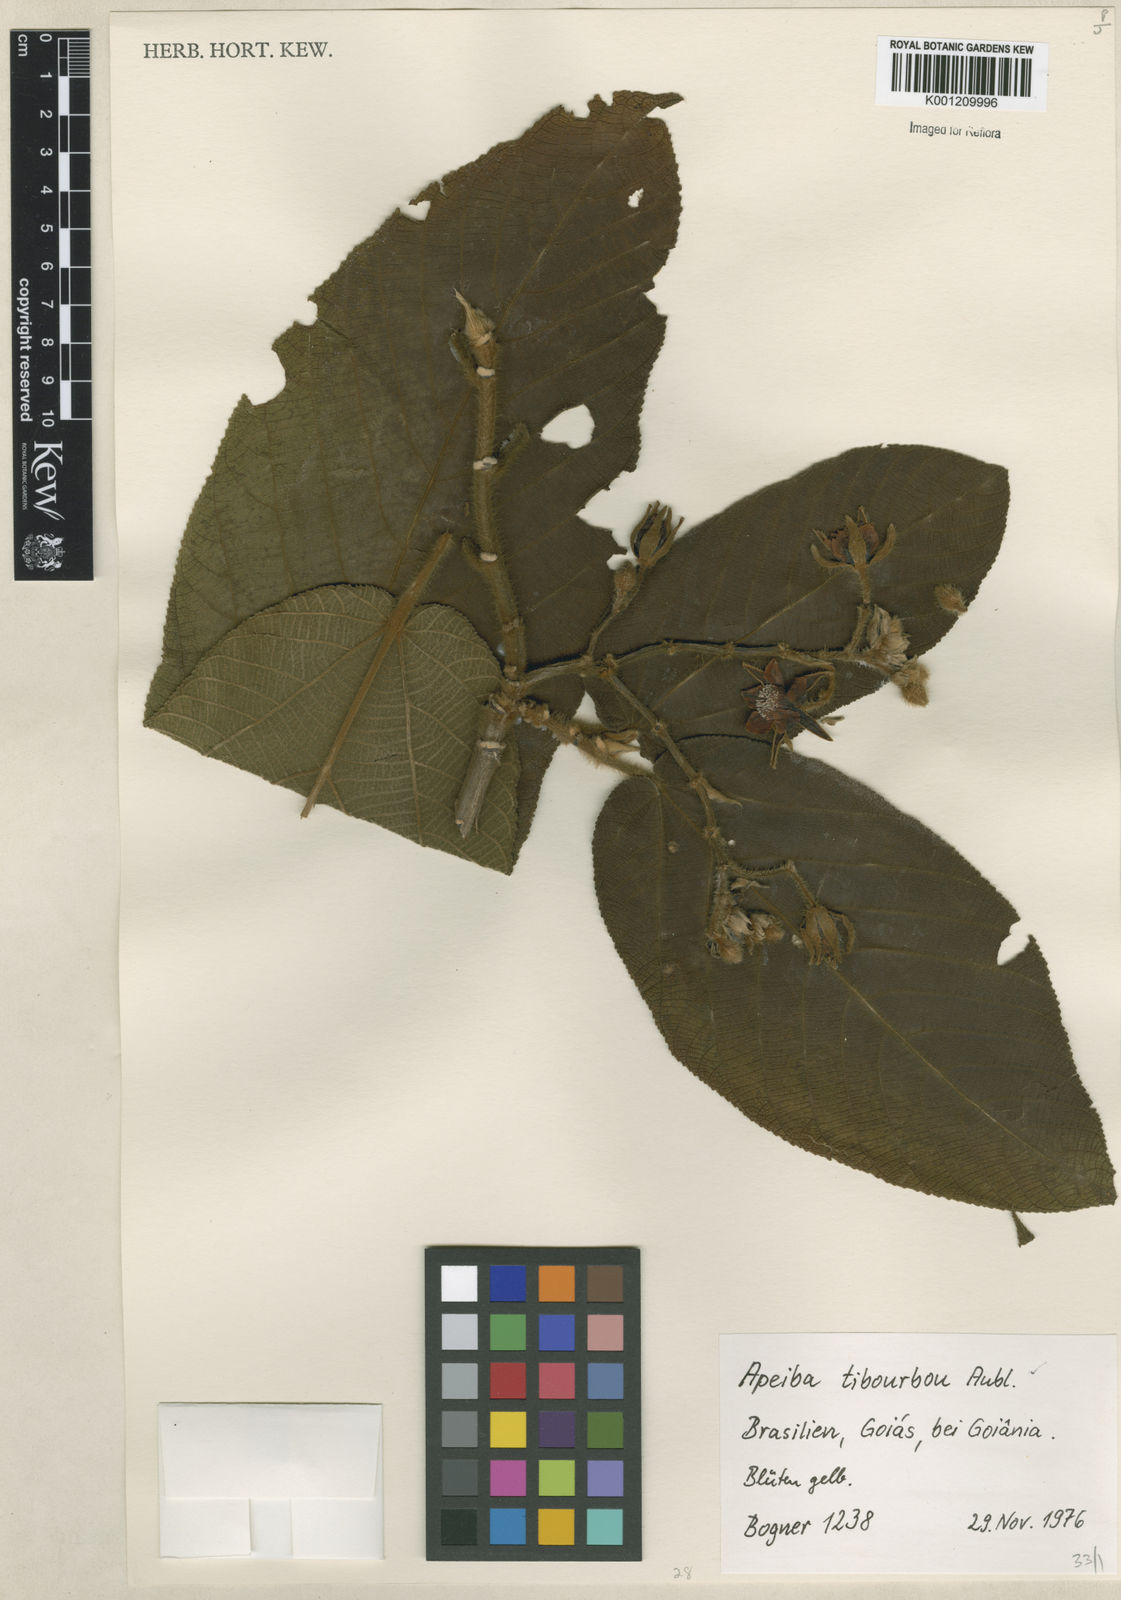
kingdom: Plantae
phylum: Tracheophyta
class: Magnoliopsida
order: Malvales
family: Malvaceae
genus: Apeiba
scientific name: Apeiba tibourbou
